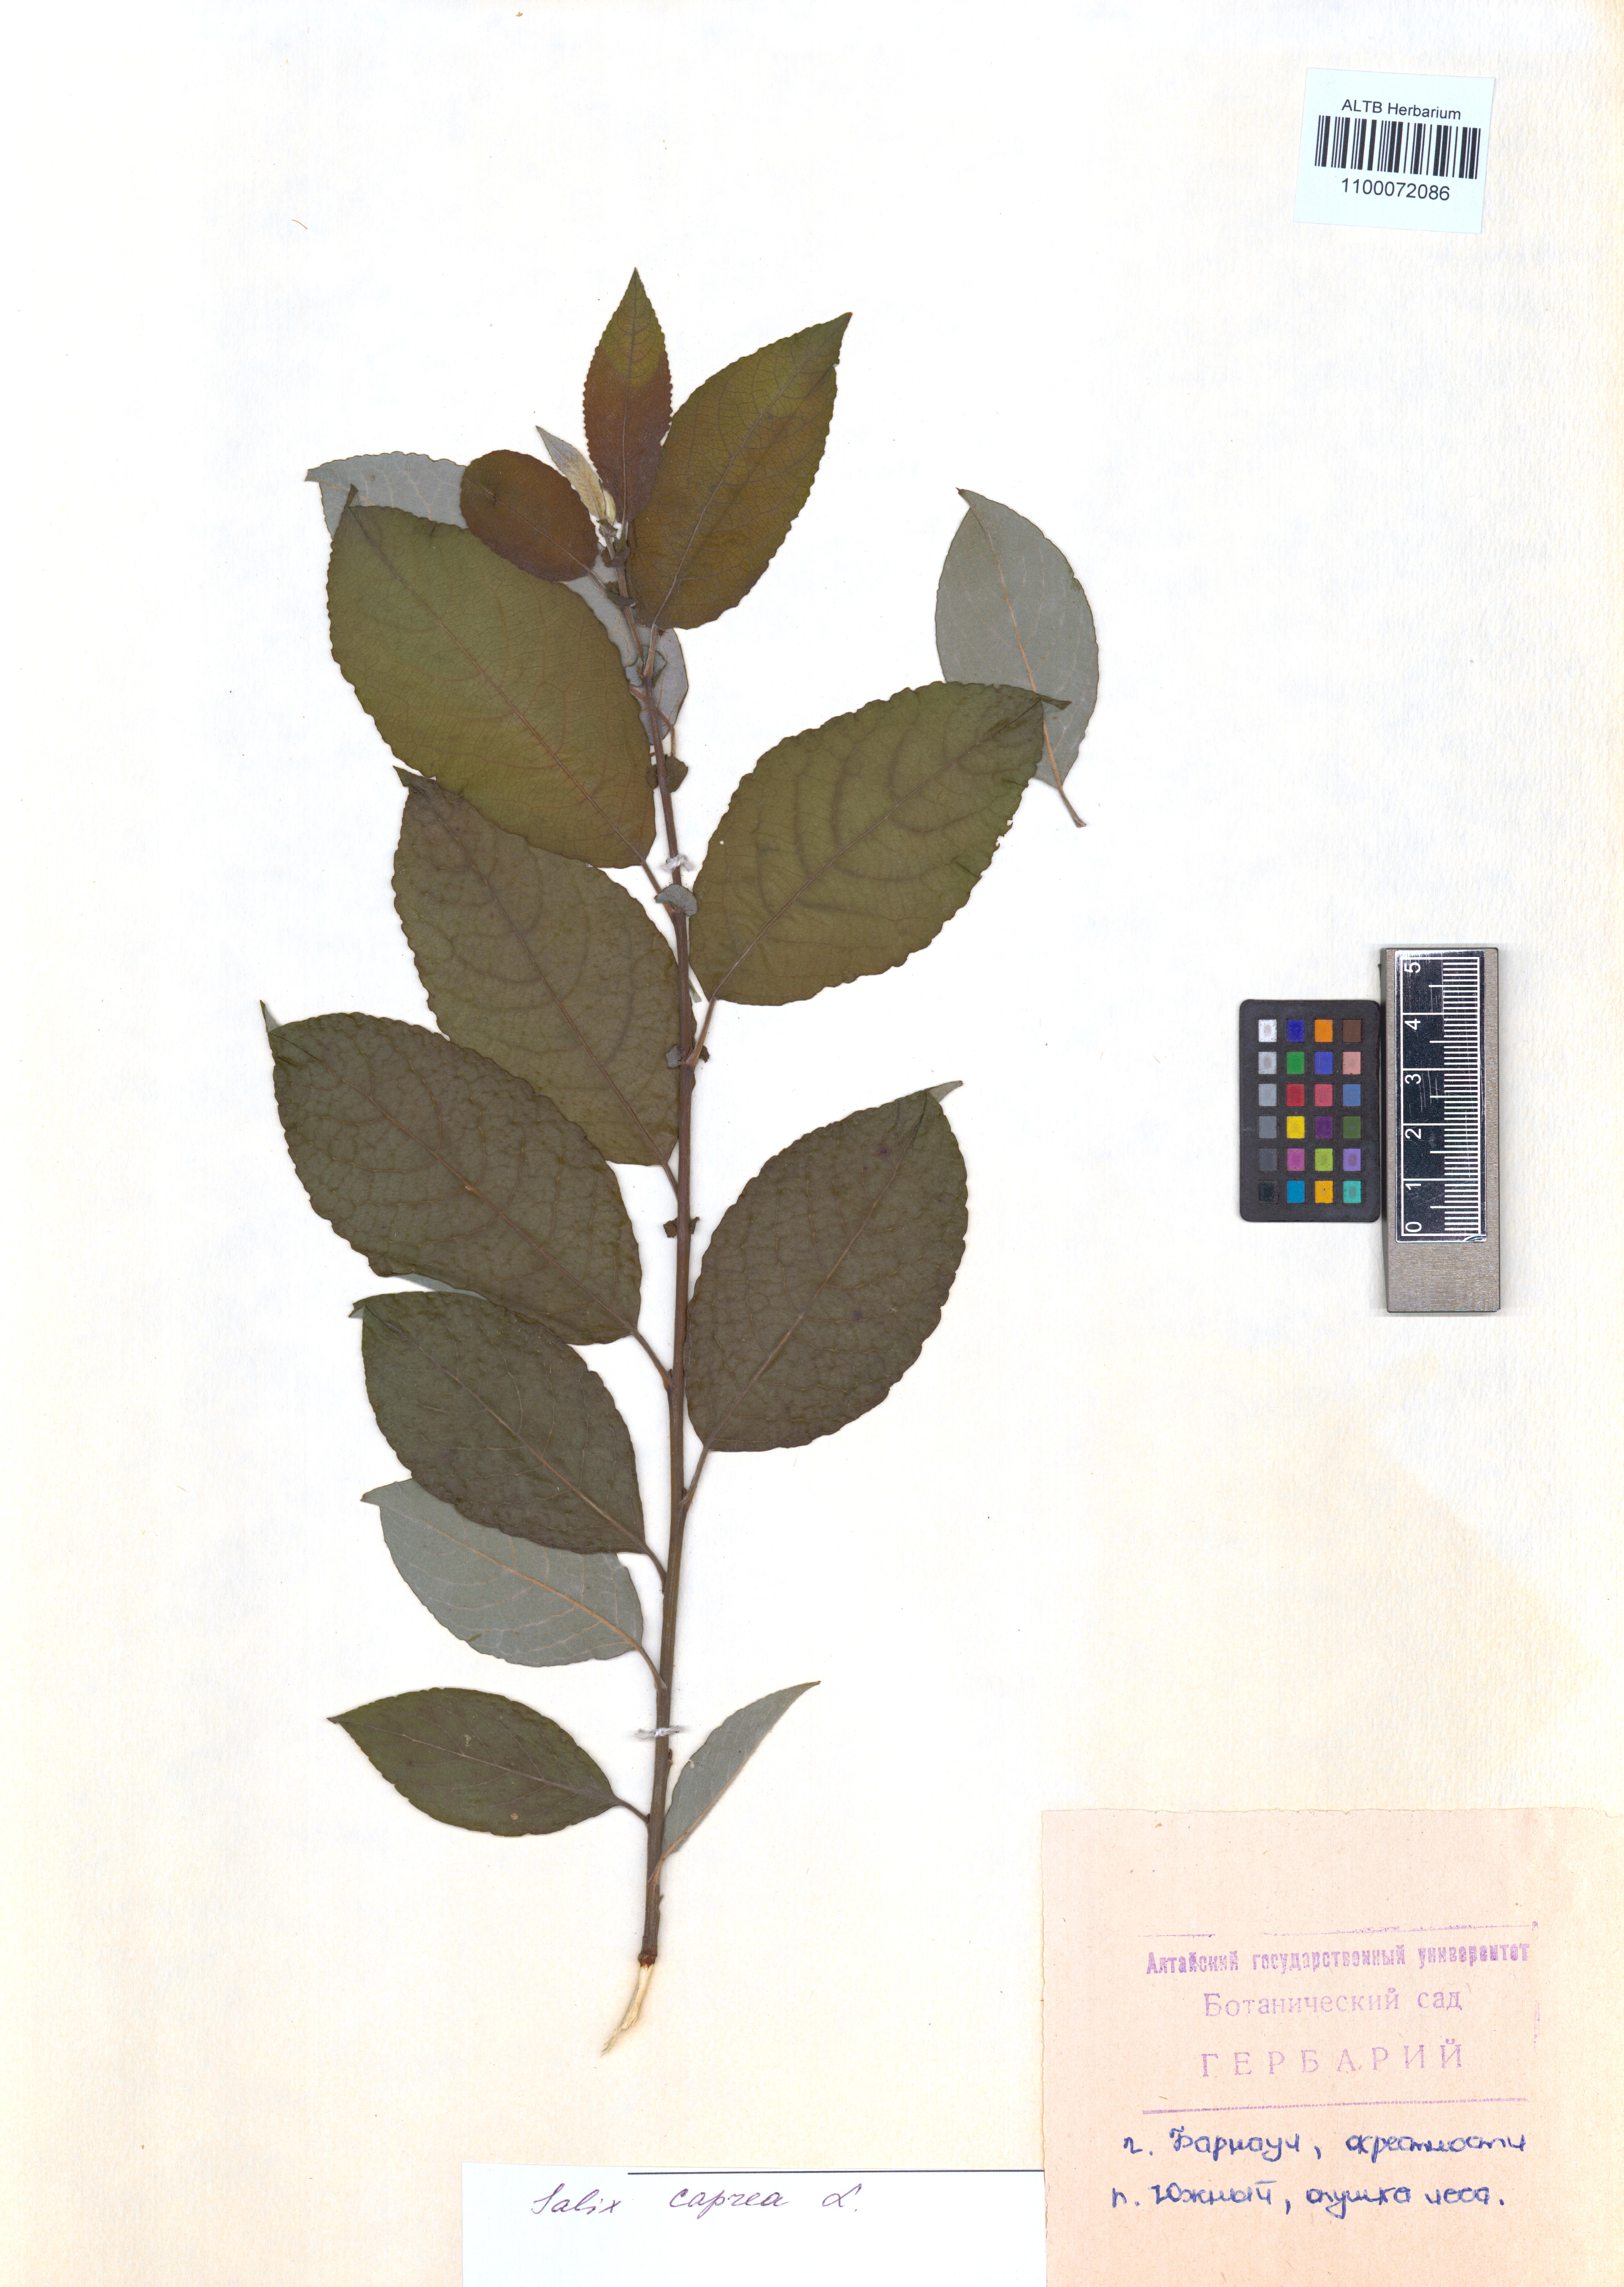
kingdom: Plantae
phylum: Tracheophyta
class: Magnoliopsida
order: Malpighiales
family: Salicaceae
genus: Salix
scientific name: Salix caprea
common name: Goat willow
